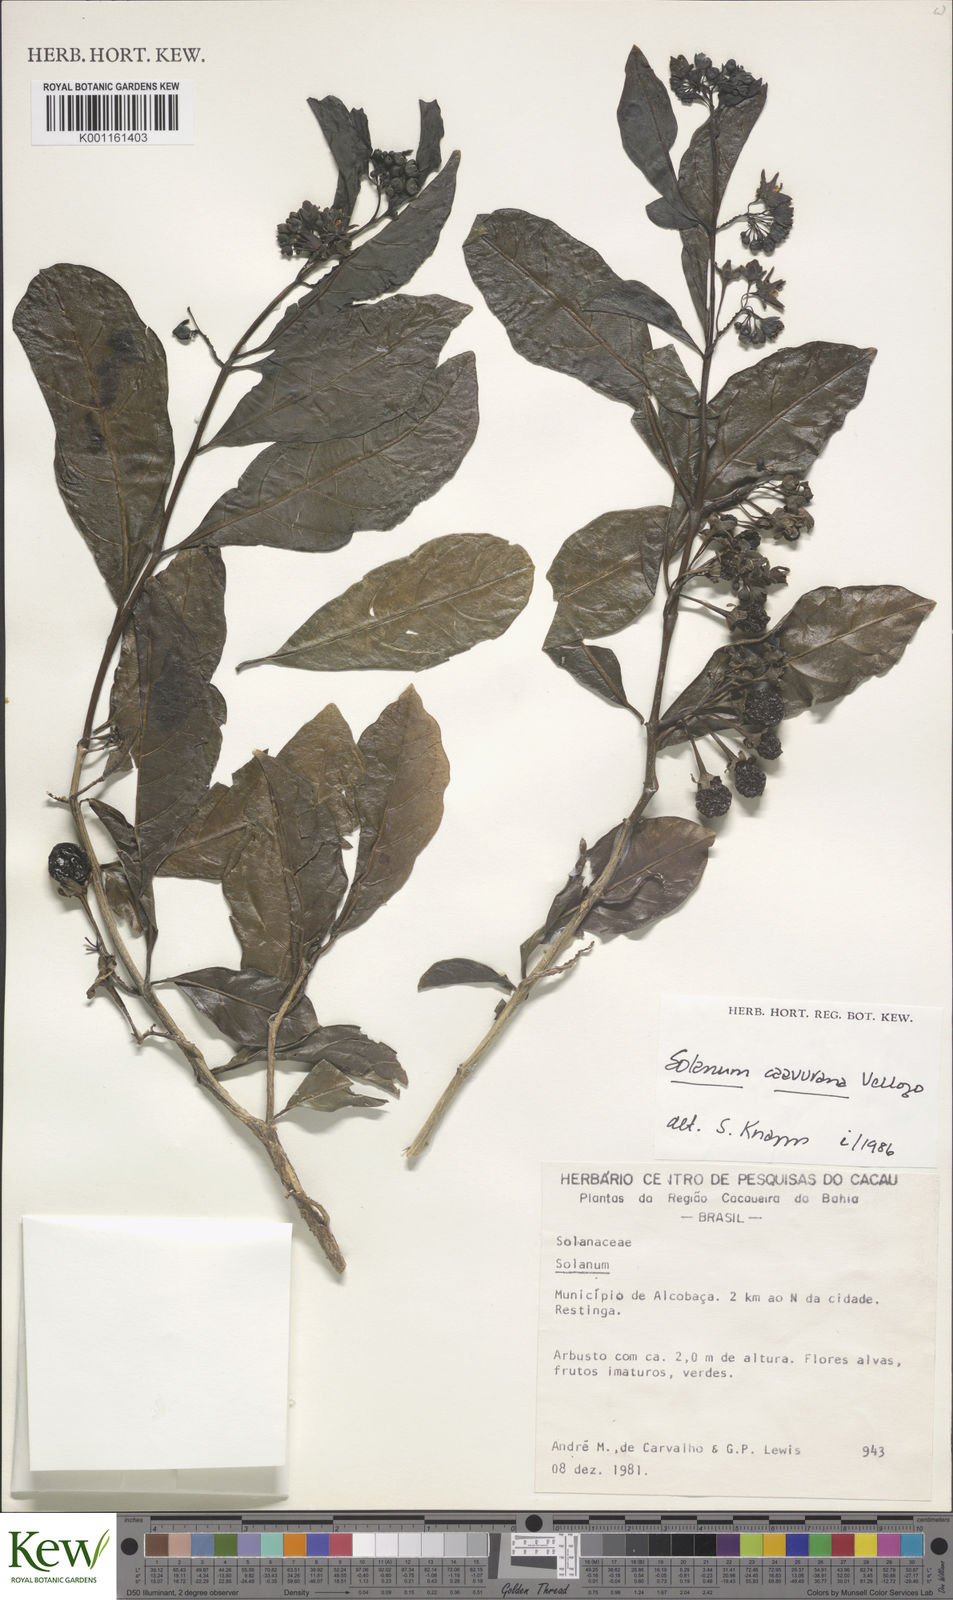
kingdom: Plantae
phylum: Tracheophyta
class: Magnoliopsida
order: Solanales
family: Solanaceae
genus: Solanum
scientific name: Solanum caavurana
